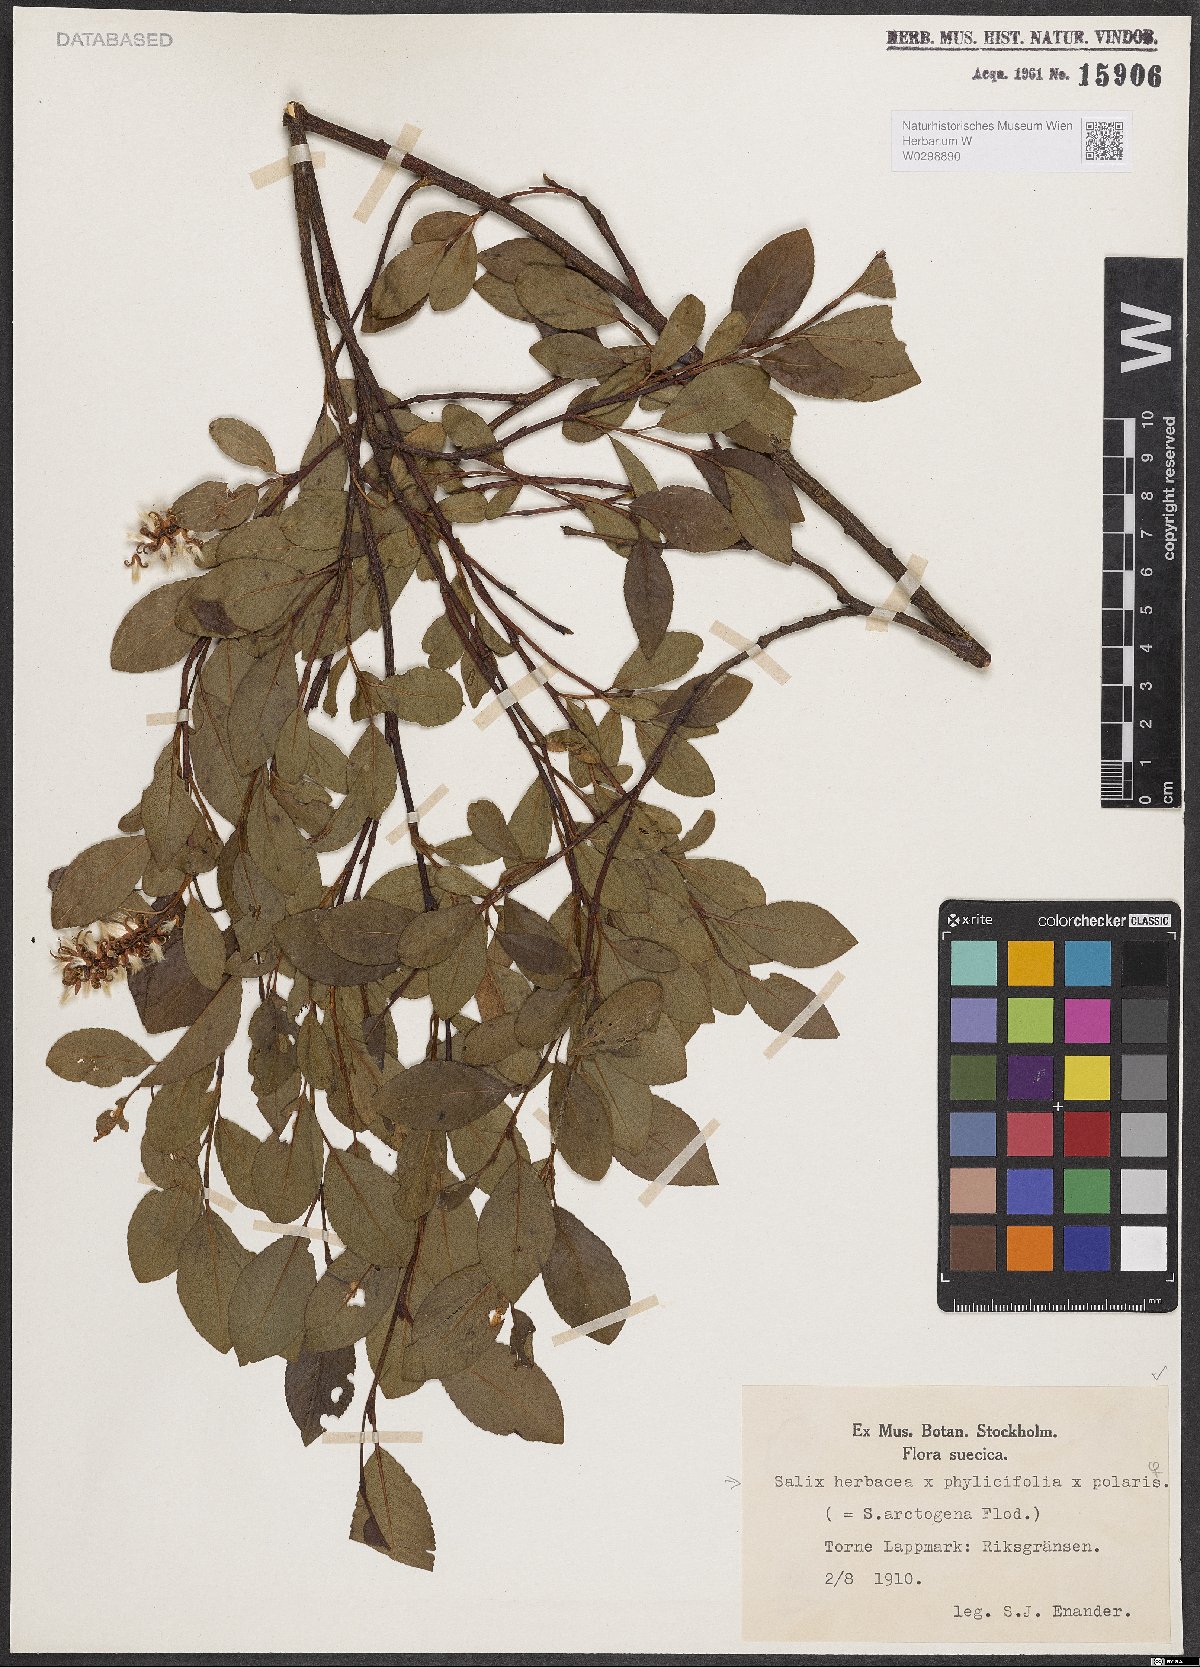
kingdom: Plantae
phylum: Tracheophyta
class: Magnoliopsida
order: Malpighiales
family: Salicaceae
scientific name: Salicaceae
